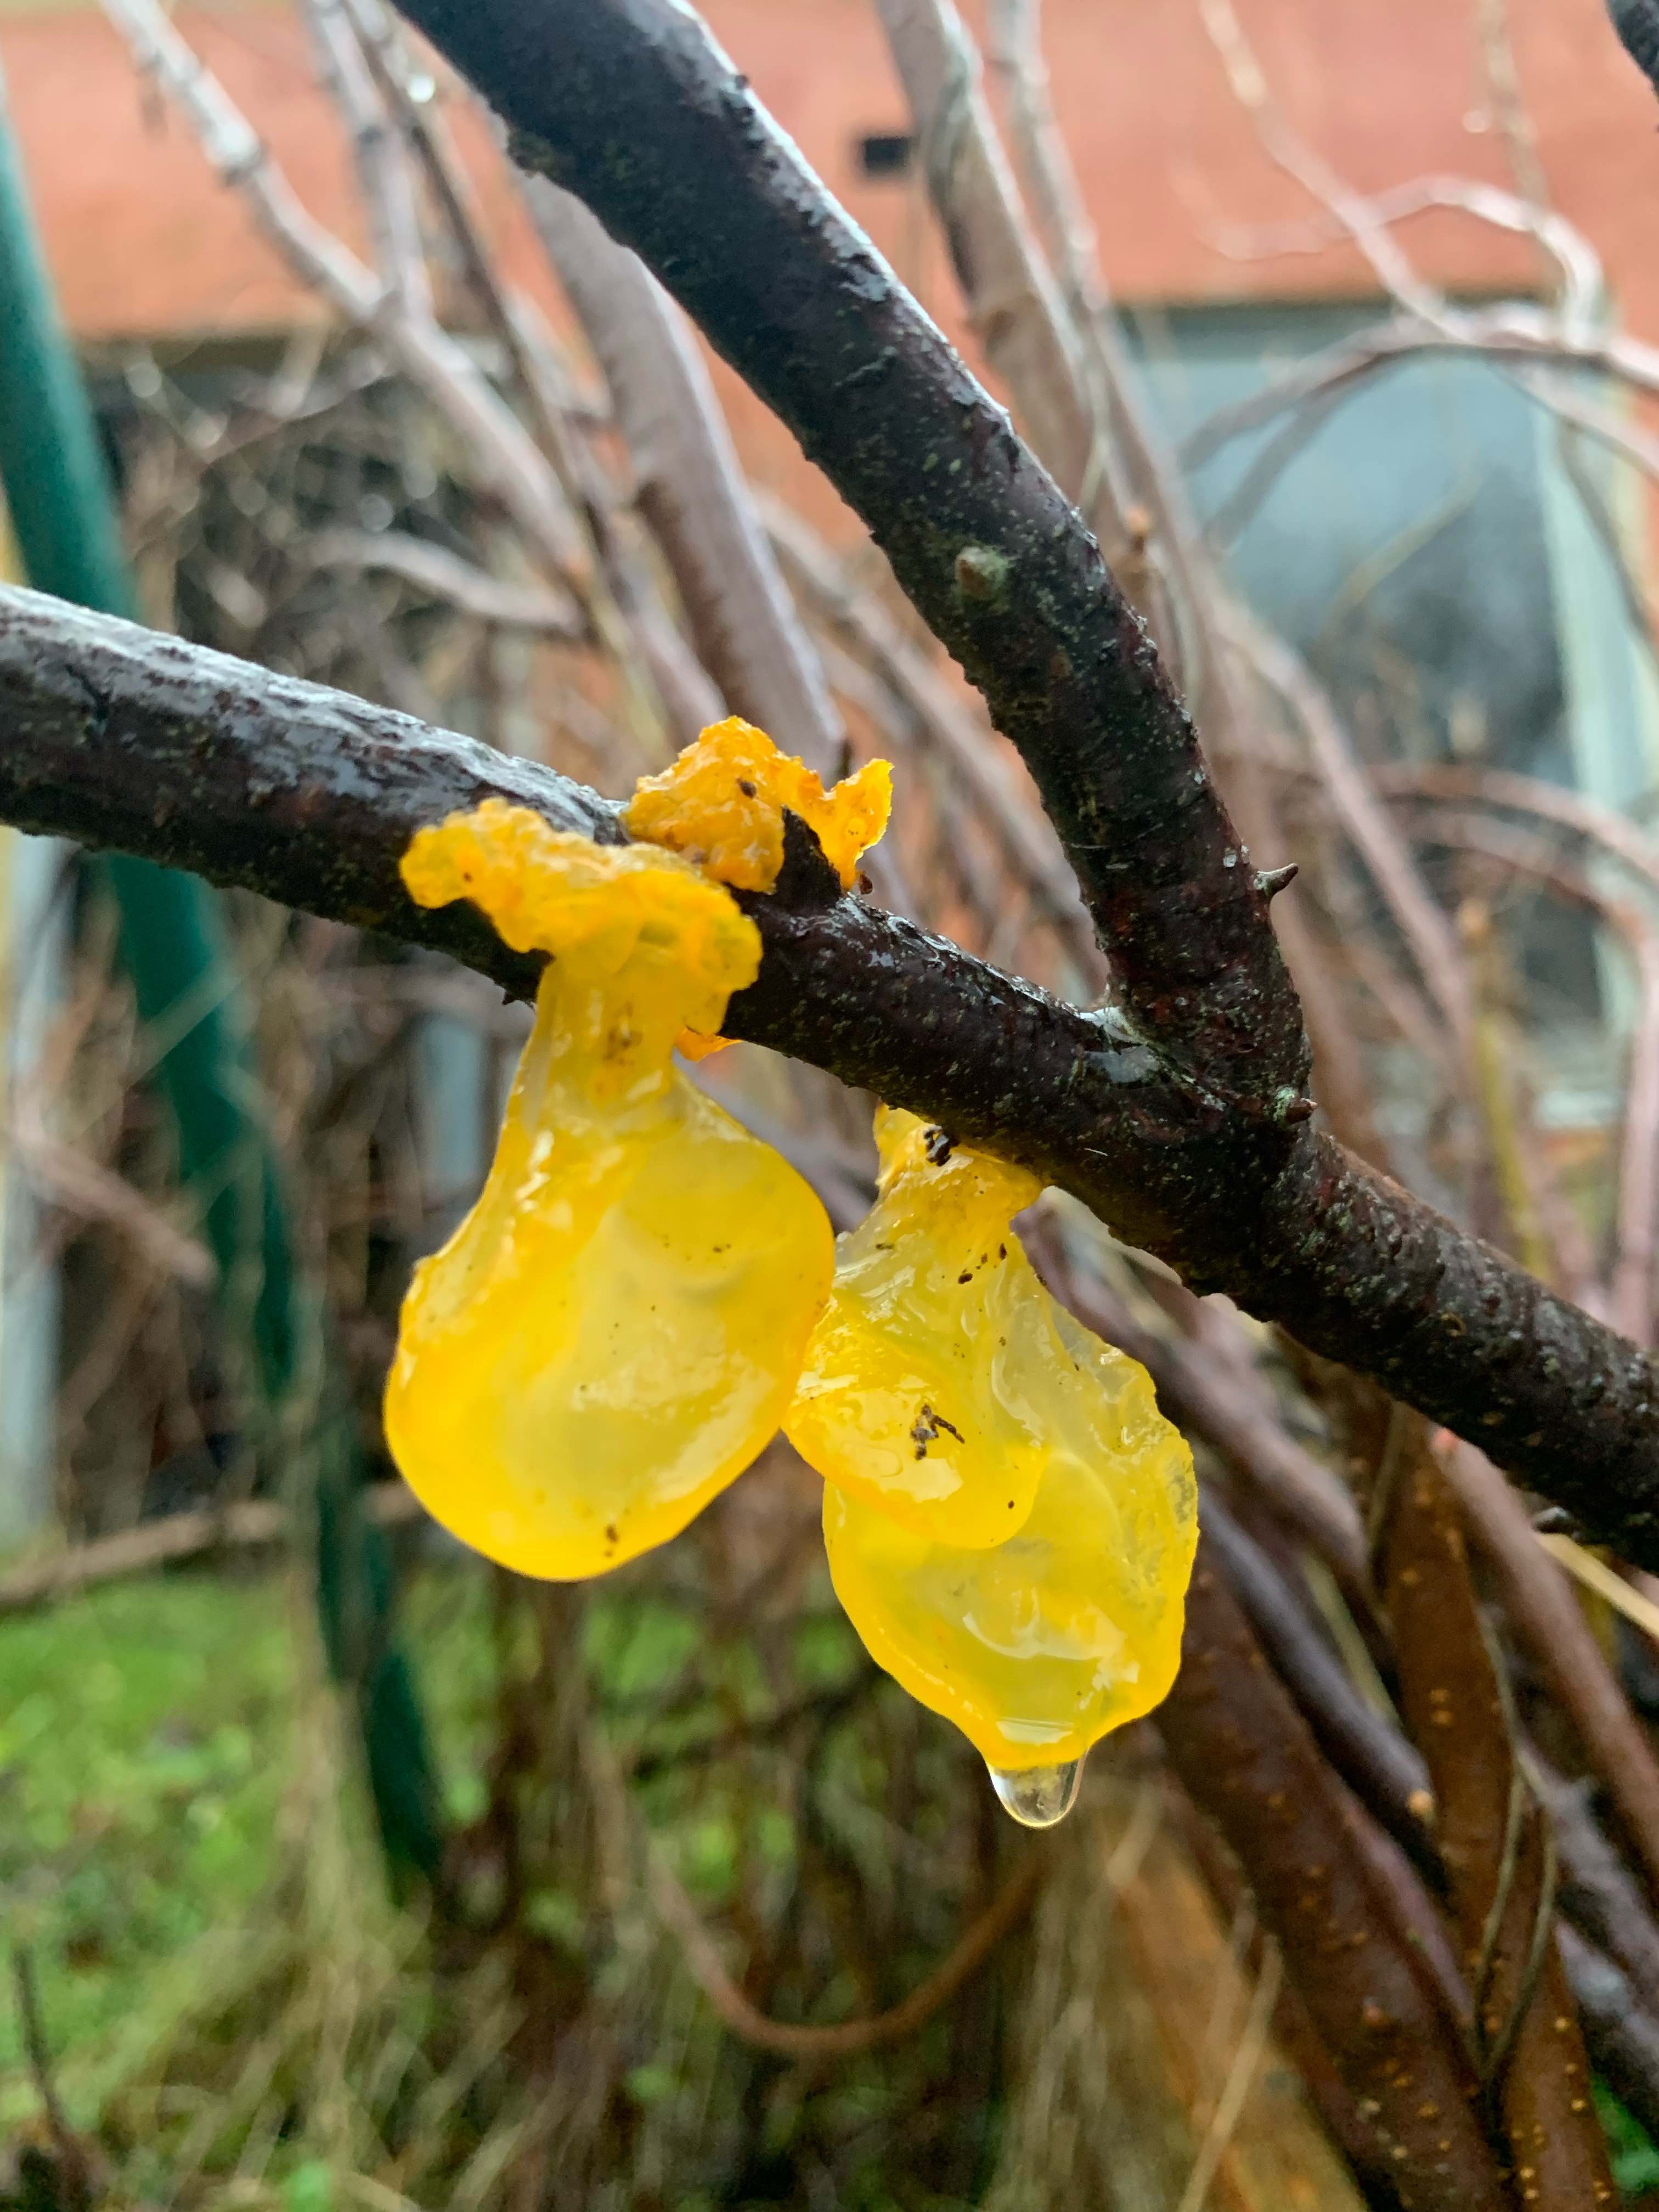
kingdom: Fungi
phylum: Basidiomycota
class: Tremellomycetes
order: Tremellales
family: Tremellaceae
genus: Tremella
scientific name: Tremella mesenterica
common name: gul bævresvamp
